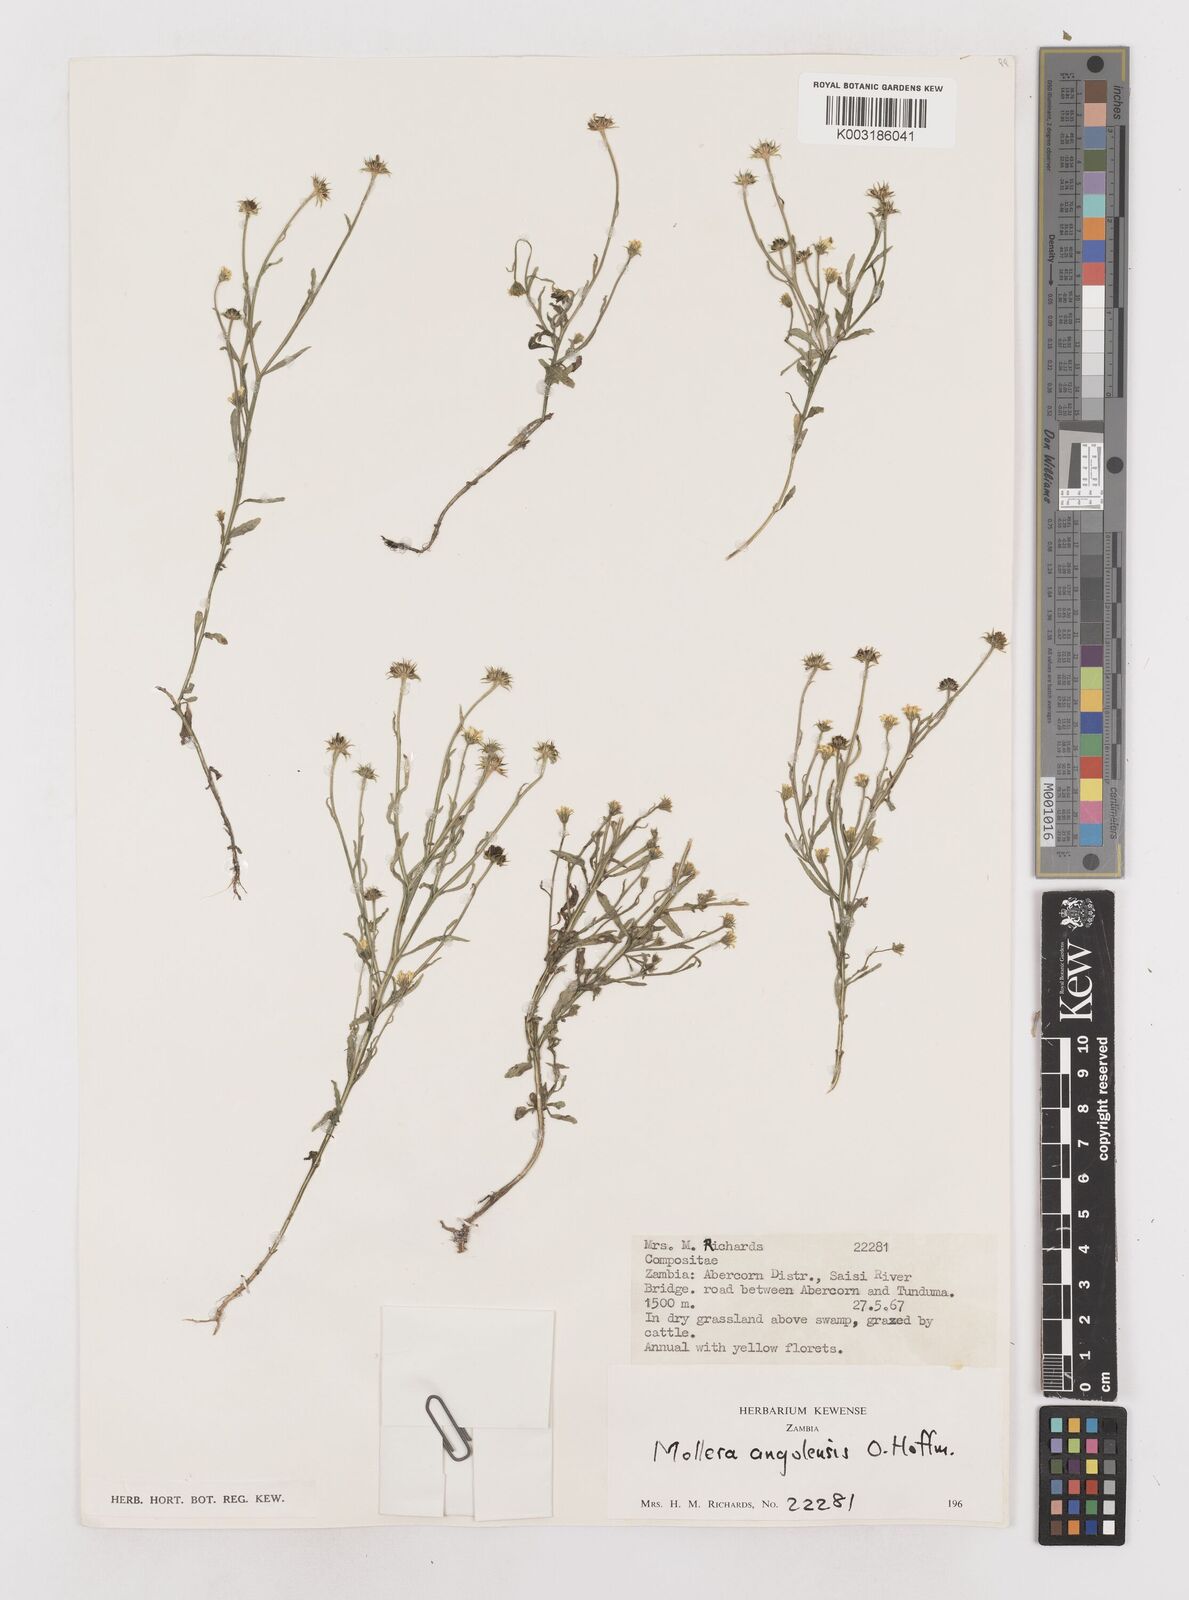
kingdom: Plantae
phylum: Tracheophyta
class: Magnoliopsida
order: Asterales
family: Asteraceae
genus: Calostephane
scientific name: Calostephane angolensis
